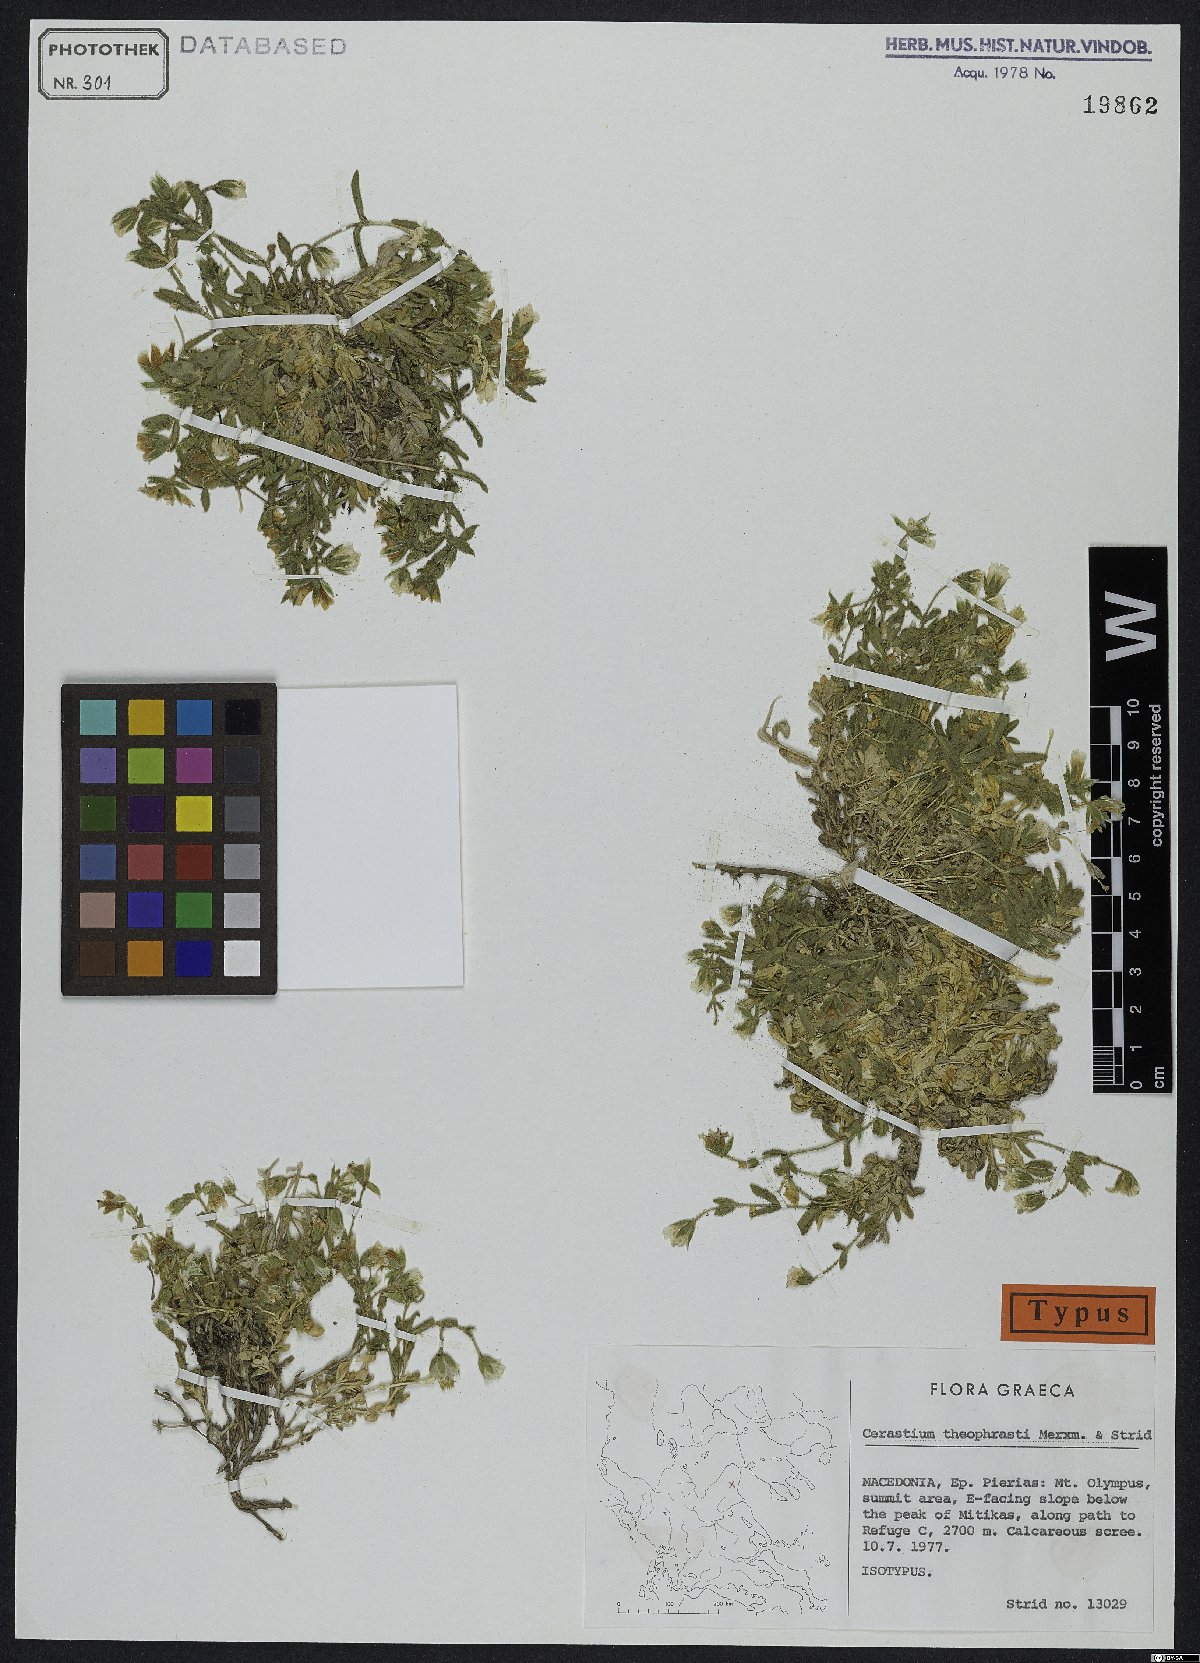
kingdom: Plantae
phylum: Tracheophyta
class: Magnoliopsida
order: Caryophyllales
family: Caryophyllaceae
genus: Cerastium
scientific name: Cerastium theophrasti
